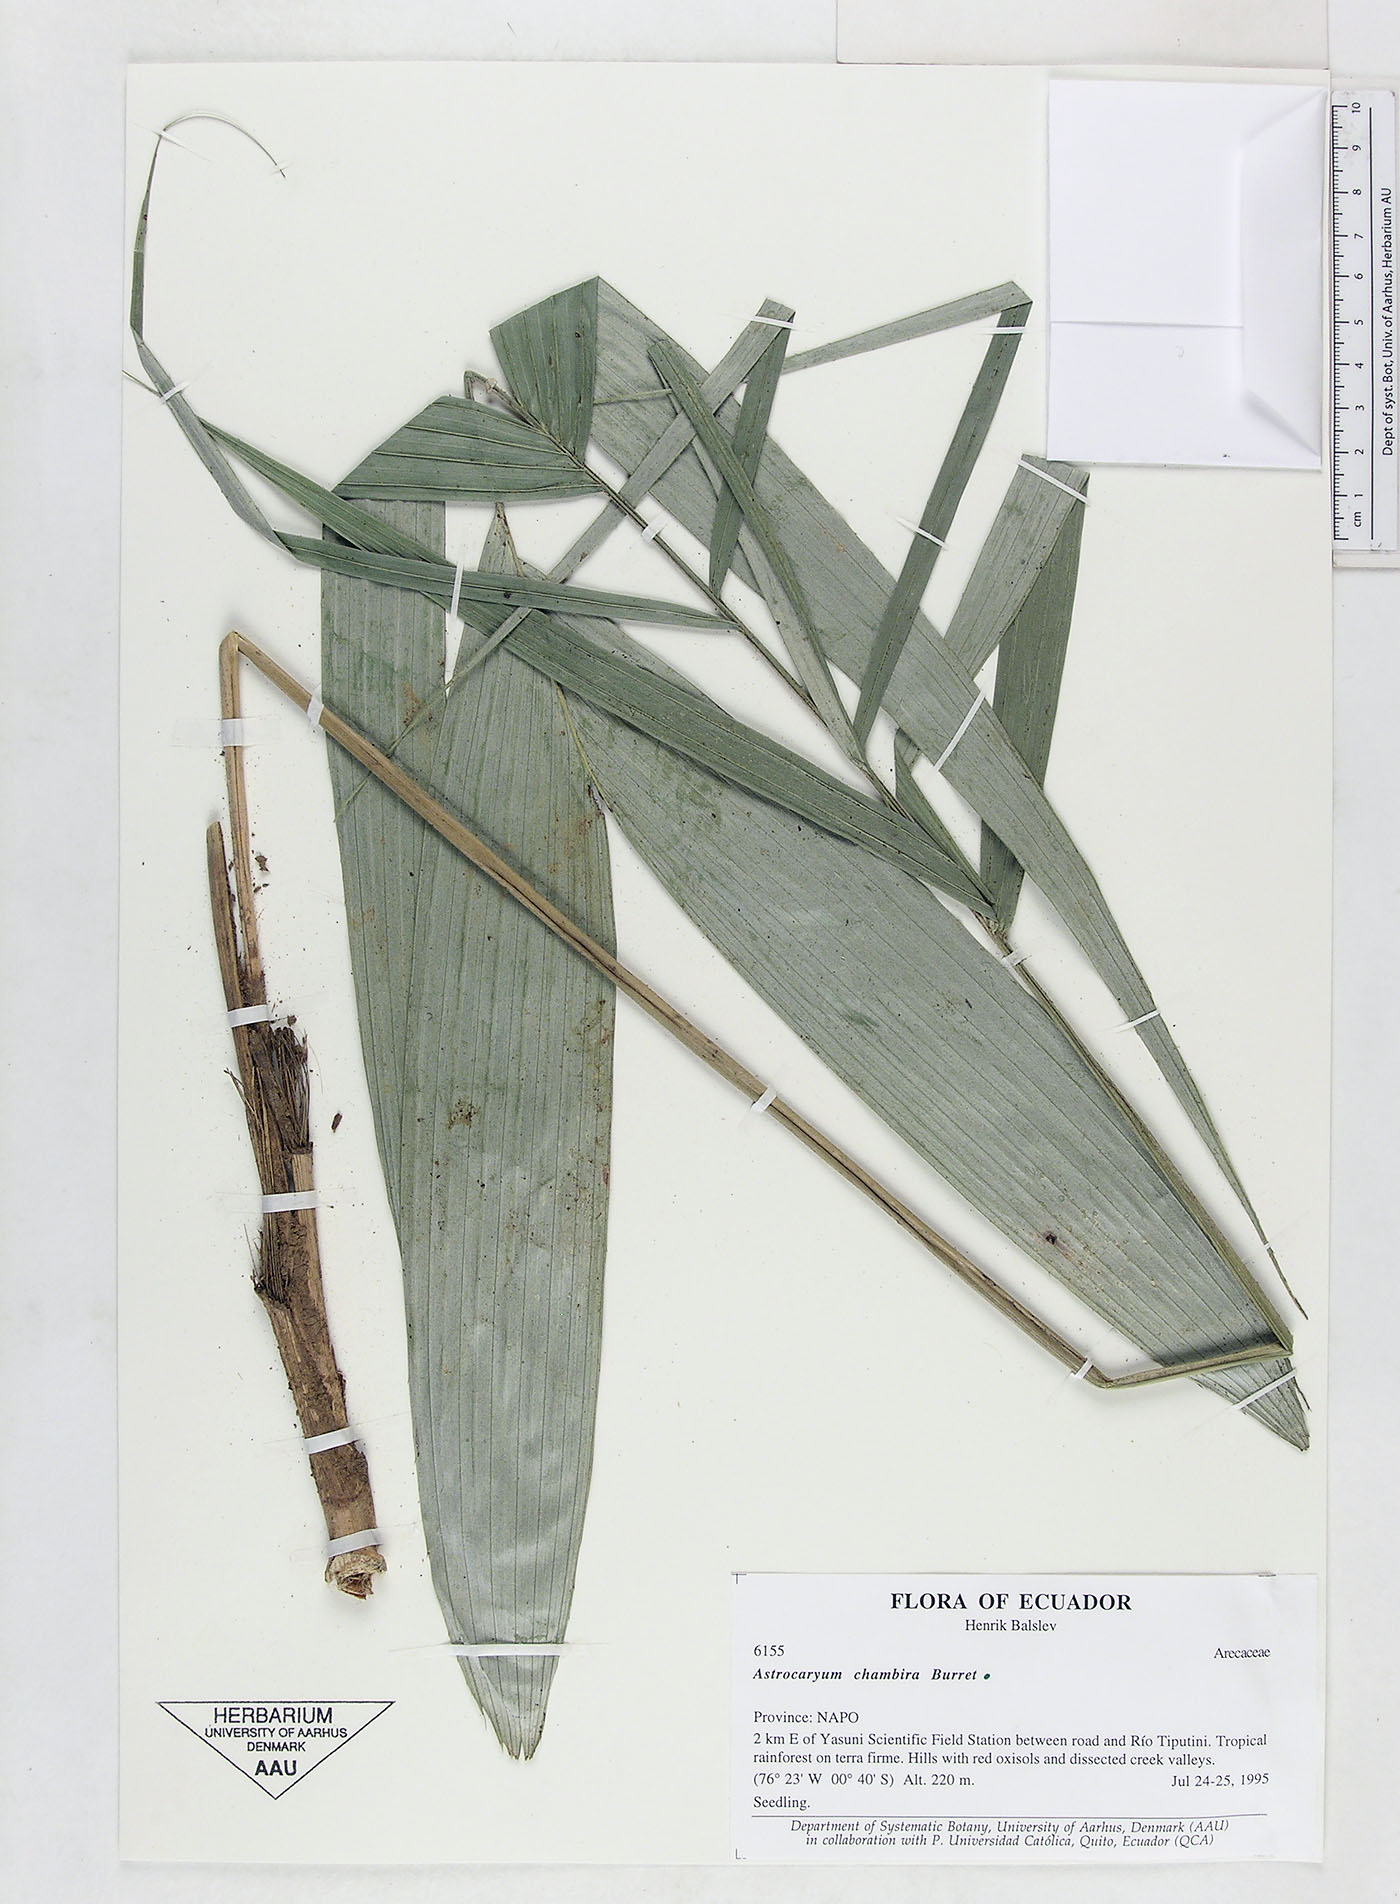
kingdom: Plantae
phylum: Tracheophyta
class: Liliopsida
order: Arecales
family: Arecaceae
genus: Astrocaryum
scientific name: Astrocaryum chambira
